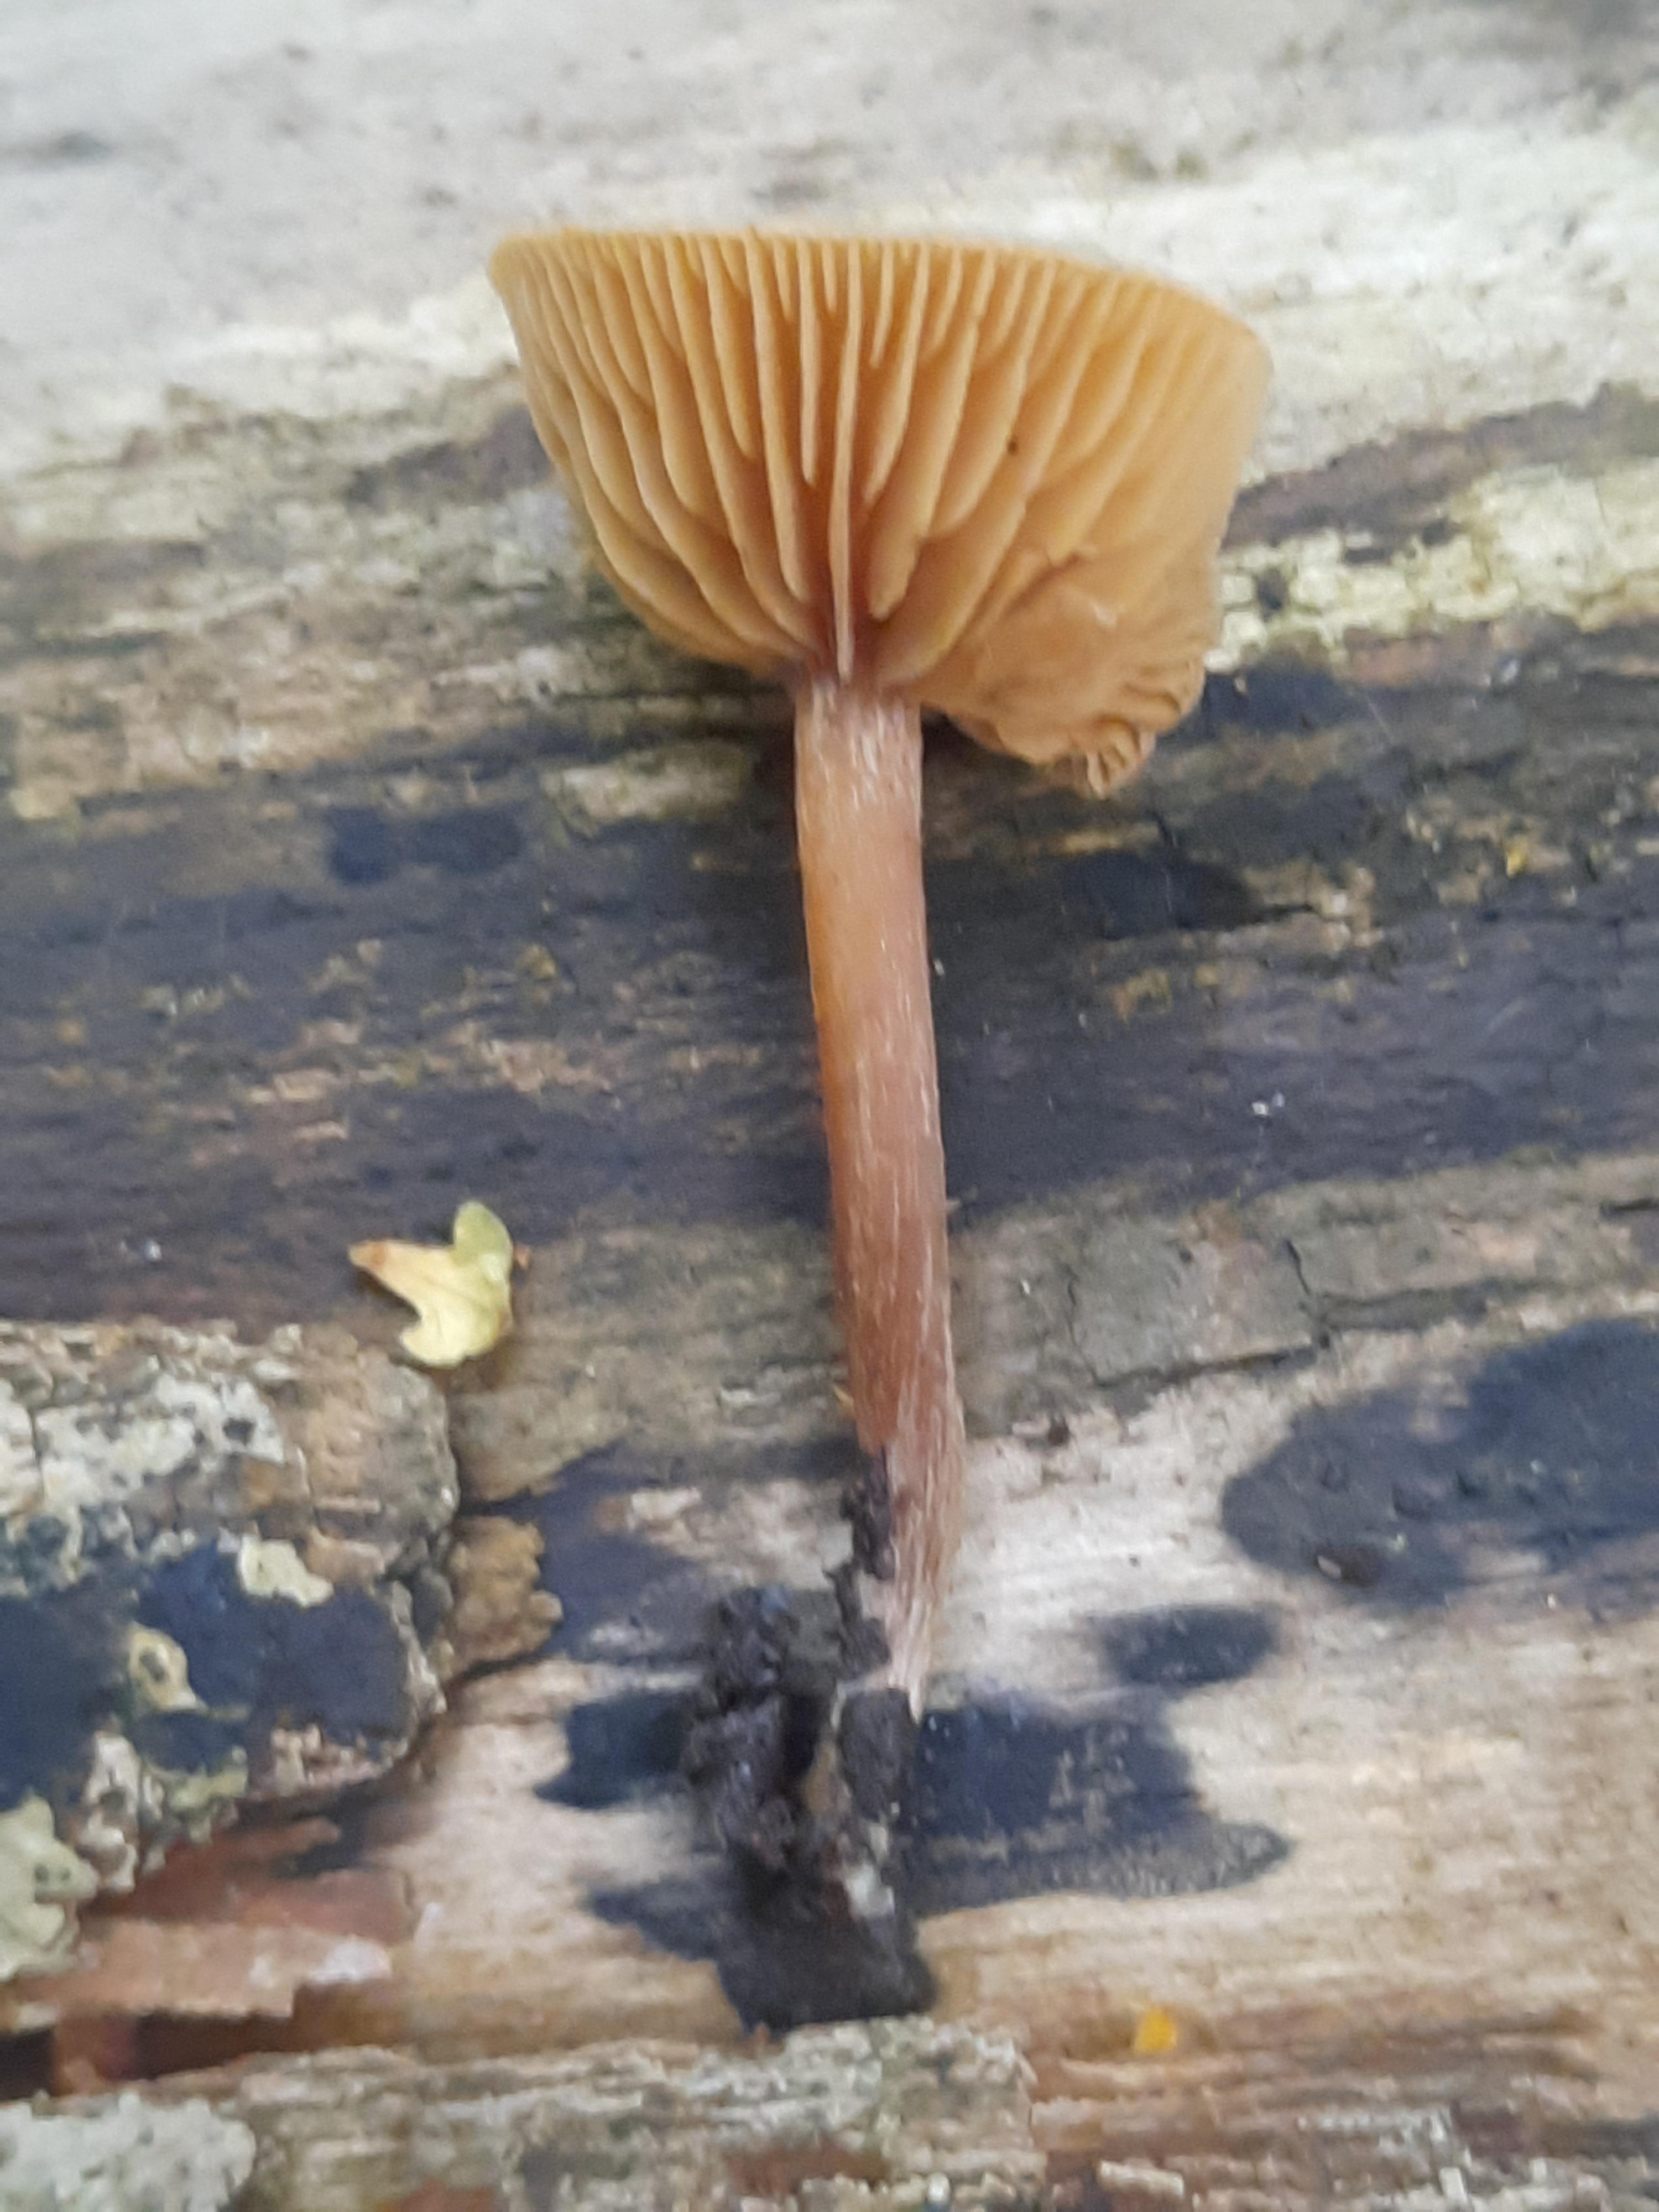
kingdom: Fungi
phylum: Basidiomycota
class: Agaricomycetes
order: Agaricales
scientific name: Agaricales
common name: champignonordenen
